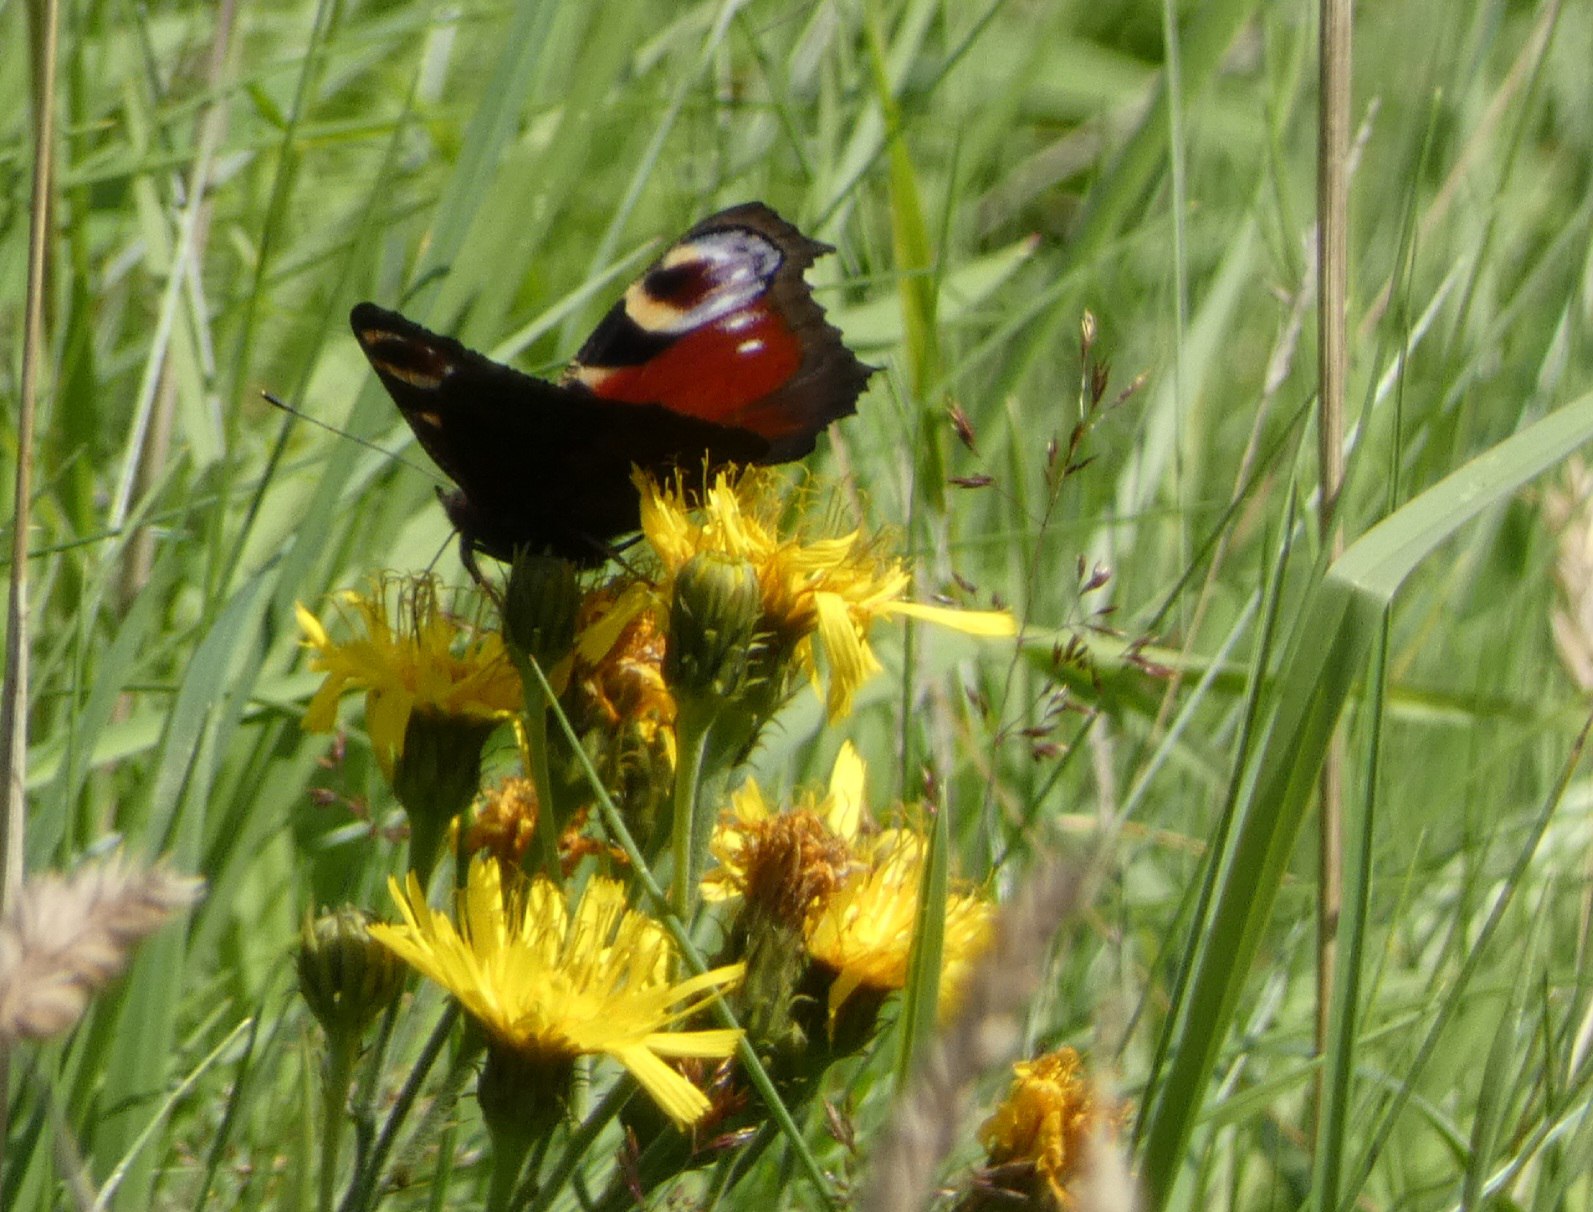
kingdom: Animalia
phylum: Arthropoda
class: Insecta
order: Lepidoptera
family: Nymphalidae
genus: Aglais
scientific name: Aglais io
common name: Dagpåfugleøje
